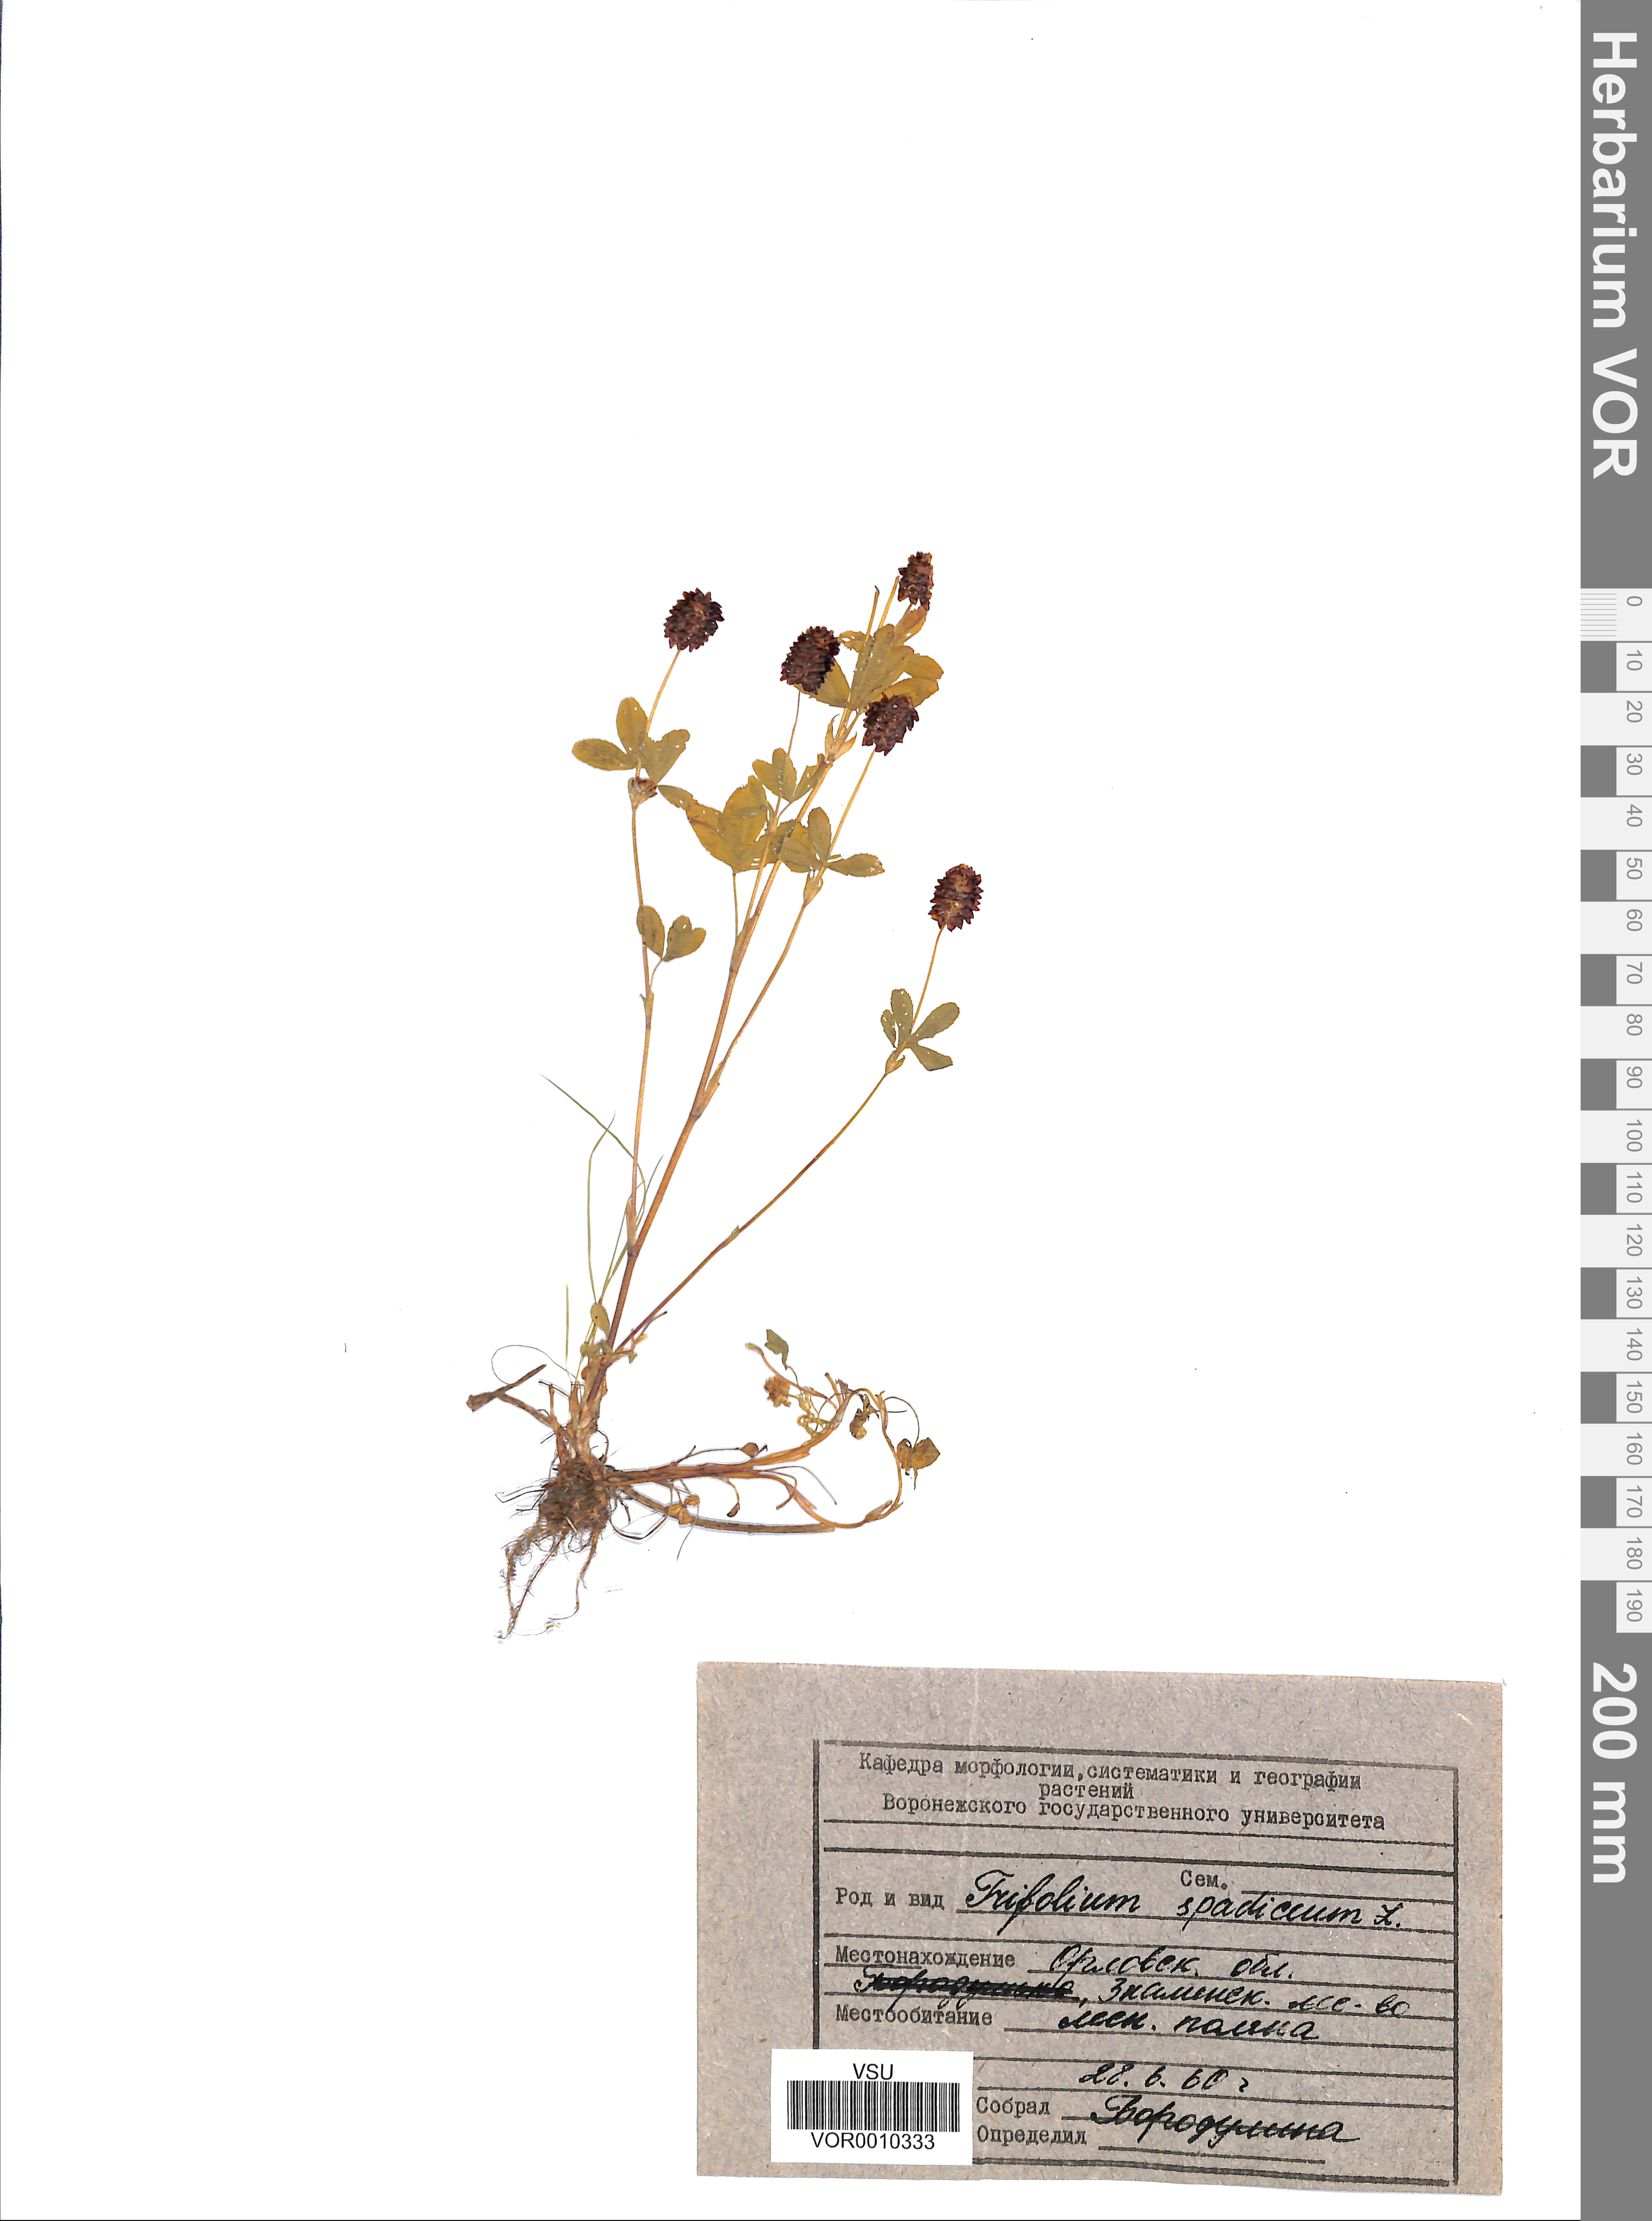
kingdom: Plantae
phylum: Tracheophyta
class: Magnoliopsida
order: Fabales
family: Fabaceae
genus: Trifolium
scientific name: Trifolium spadiceum
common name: Brown moor clover
